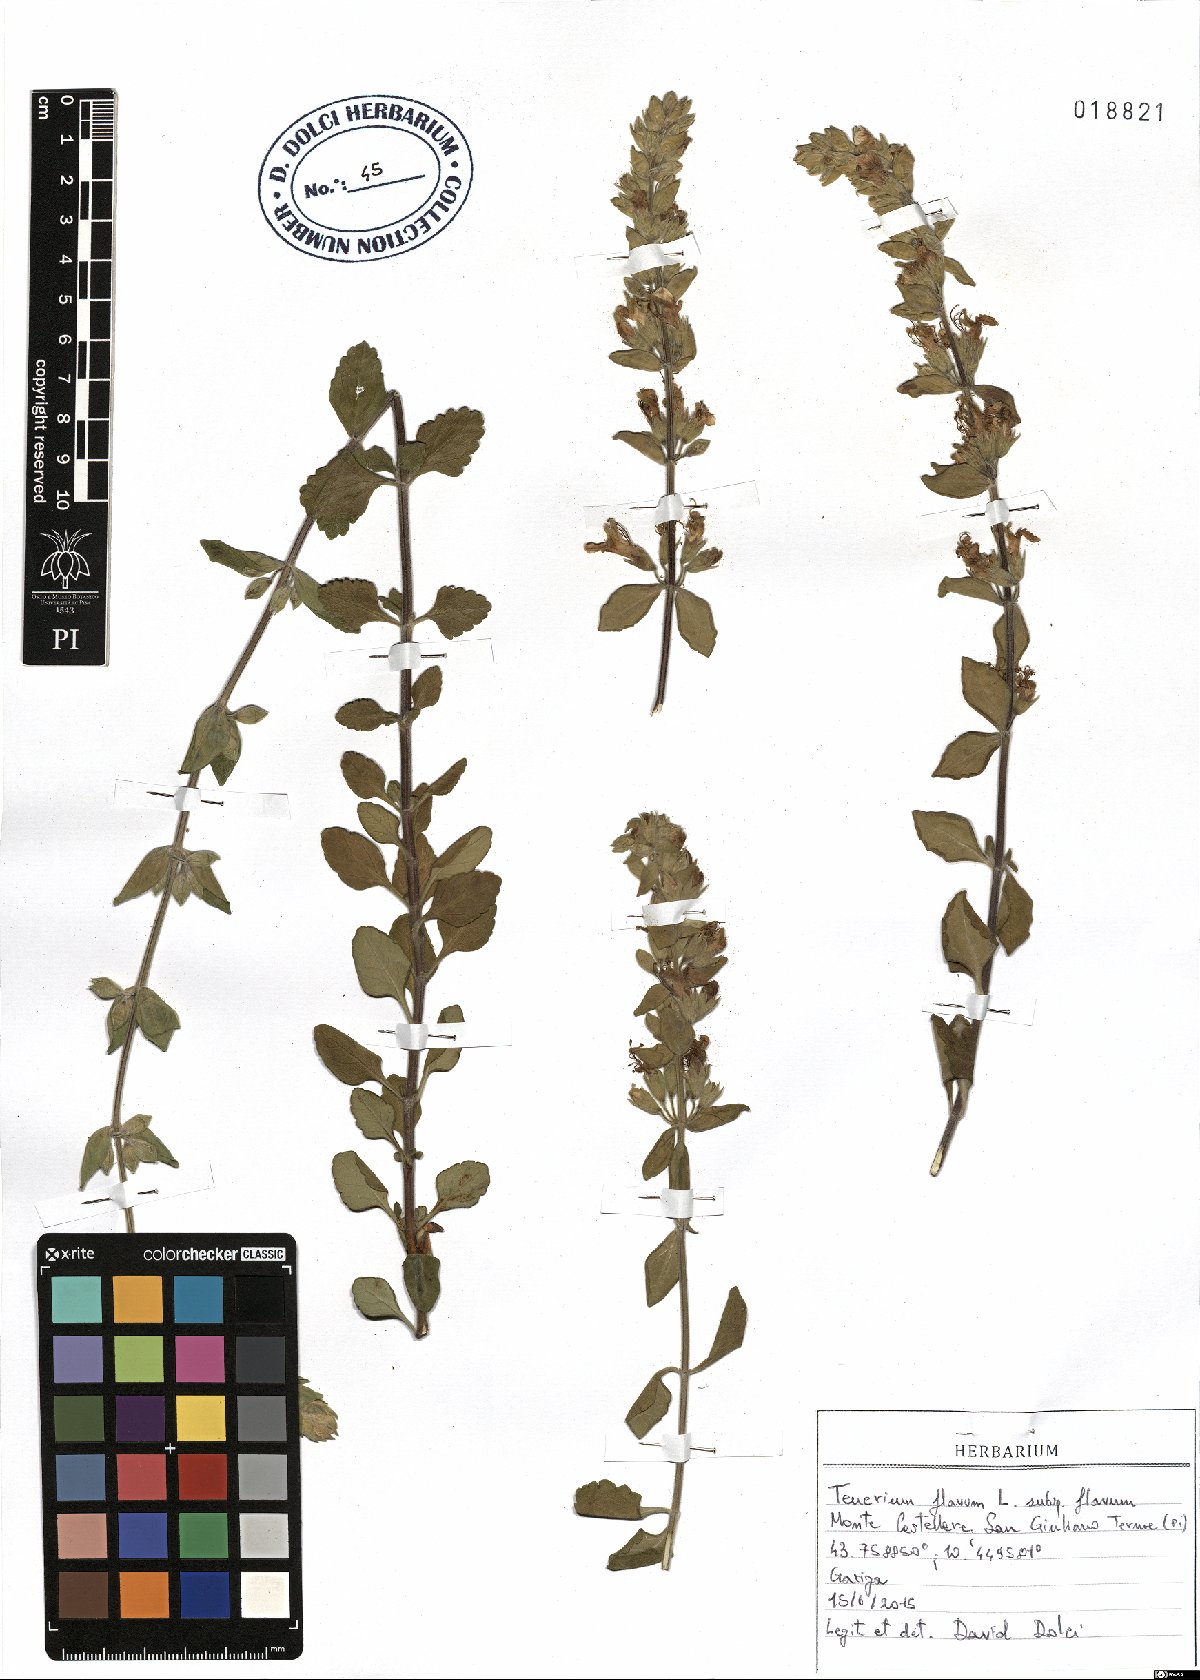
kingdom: Plantae
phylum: Tracheophyta
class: Magnoliopsida
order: Lamiales
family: Lamiaceae
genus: Teucrium
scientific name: Teucrium flavum
